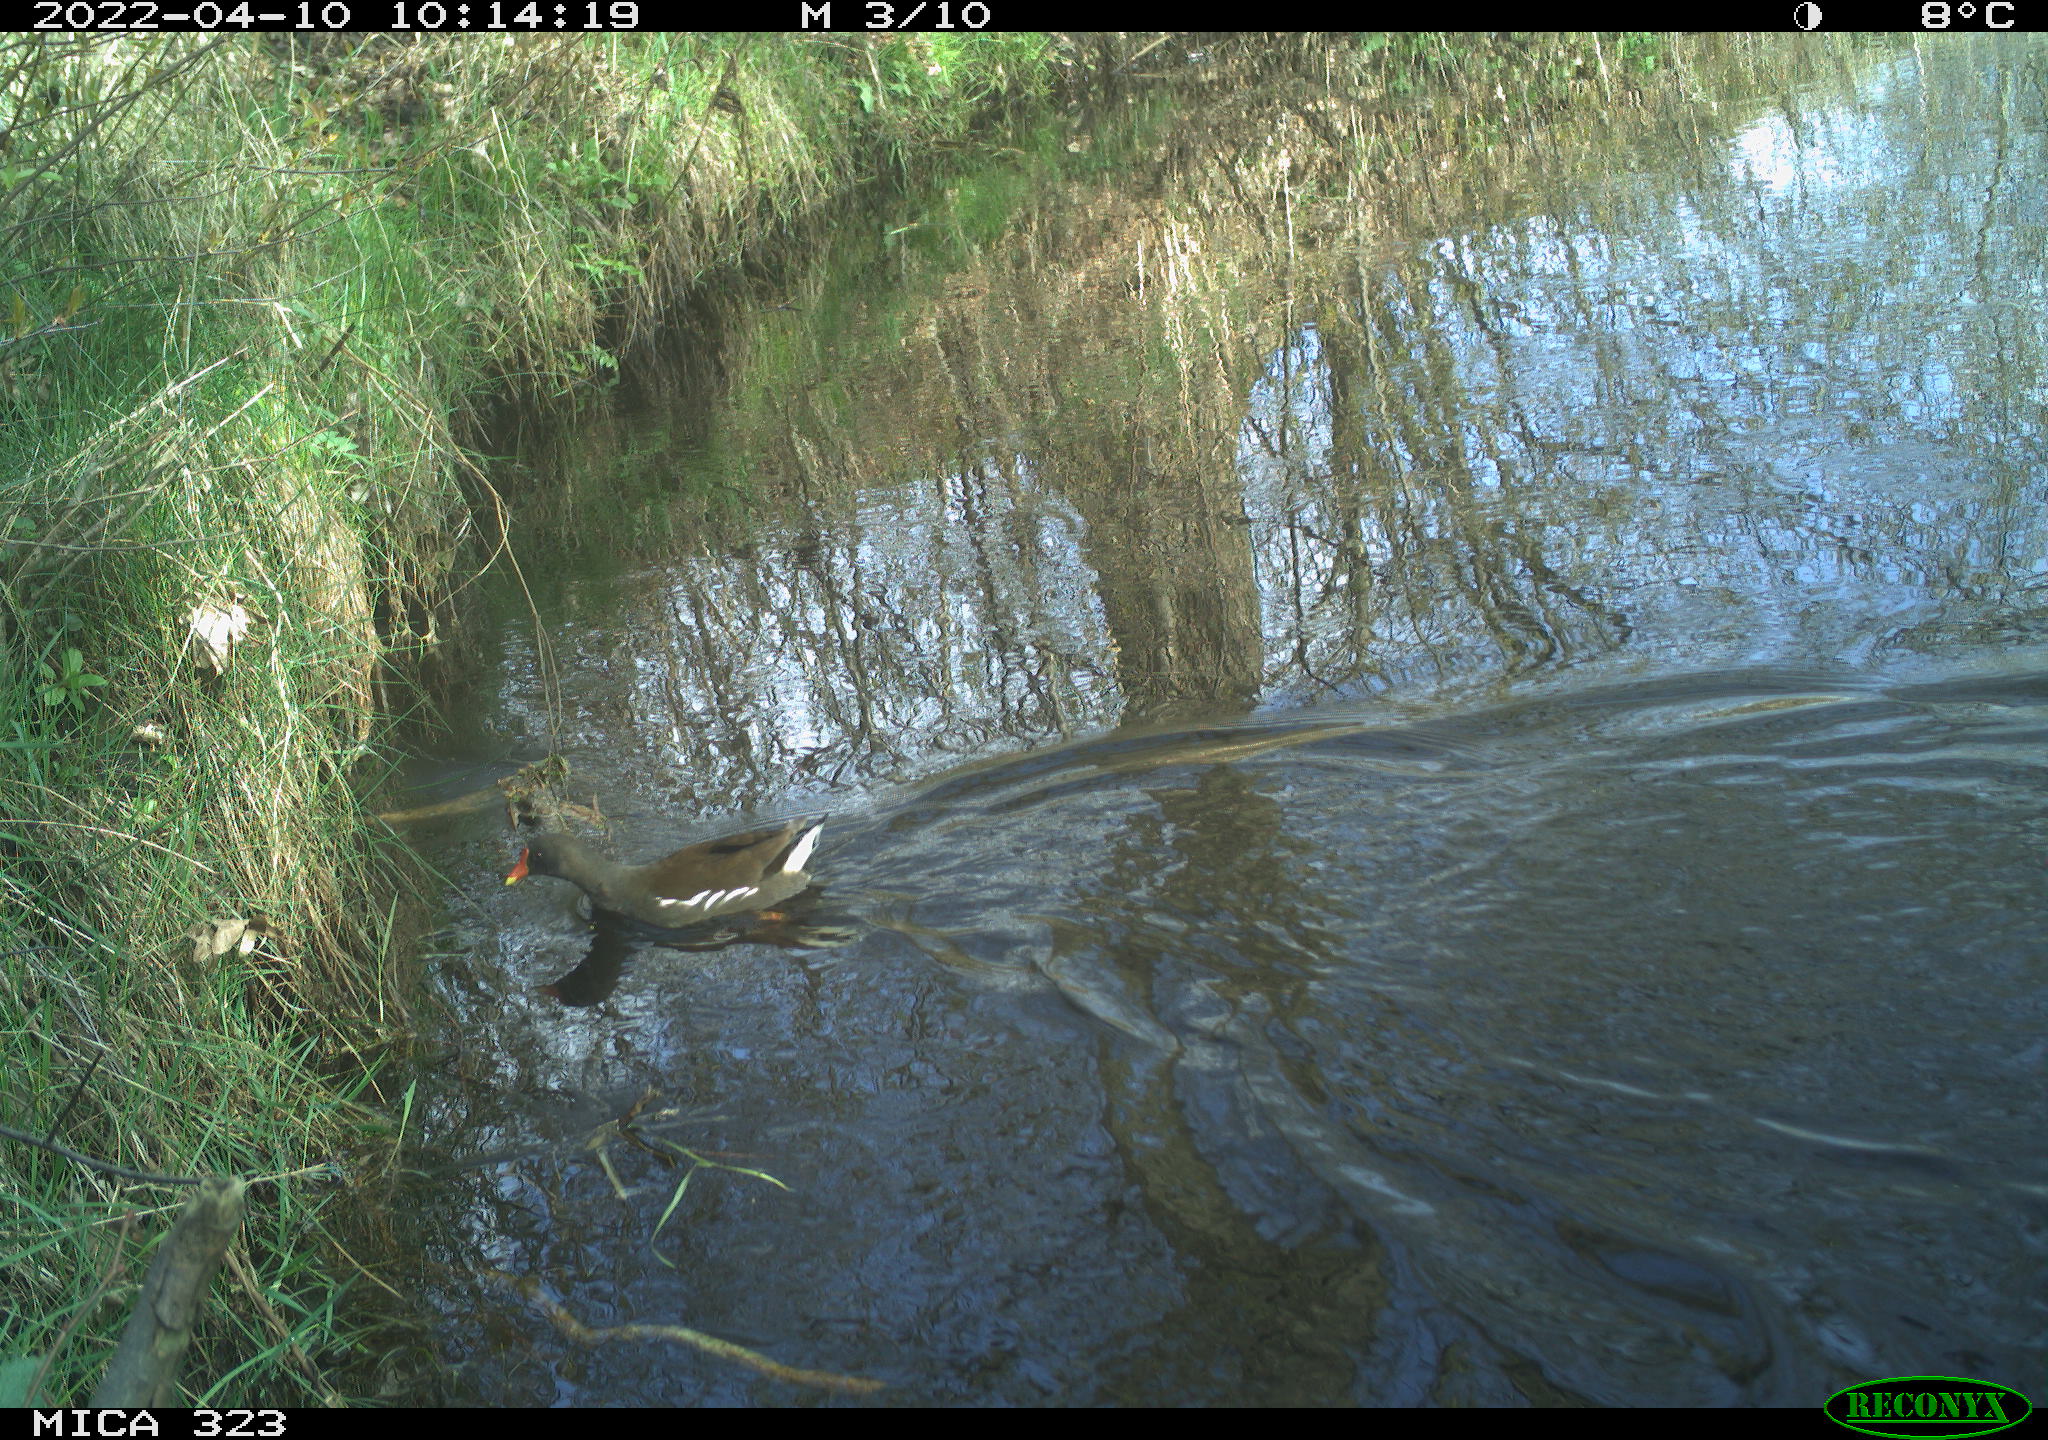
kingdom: Animalia
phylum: Chordata
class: Aves
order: Gruiformes
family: Rallidae
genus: Gallinula
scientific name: Gallinula chloropus
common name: Common moorhen
